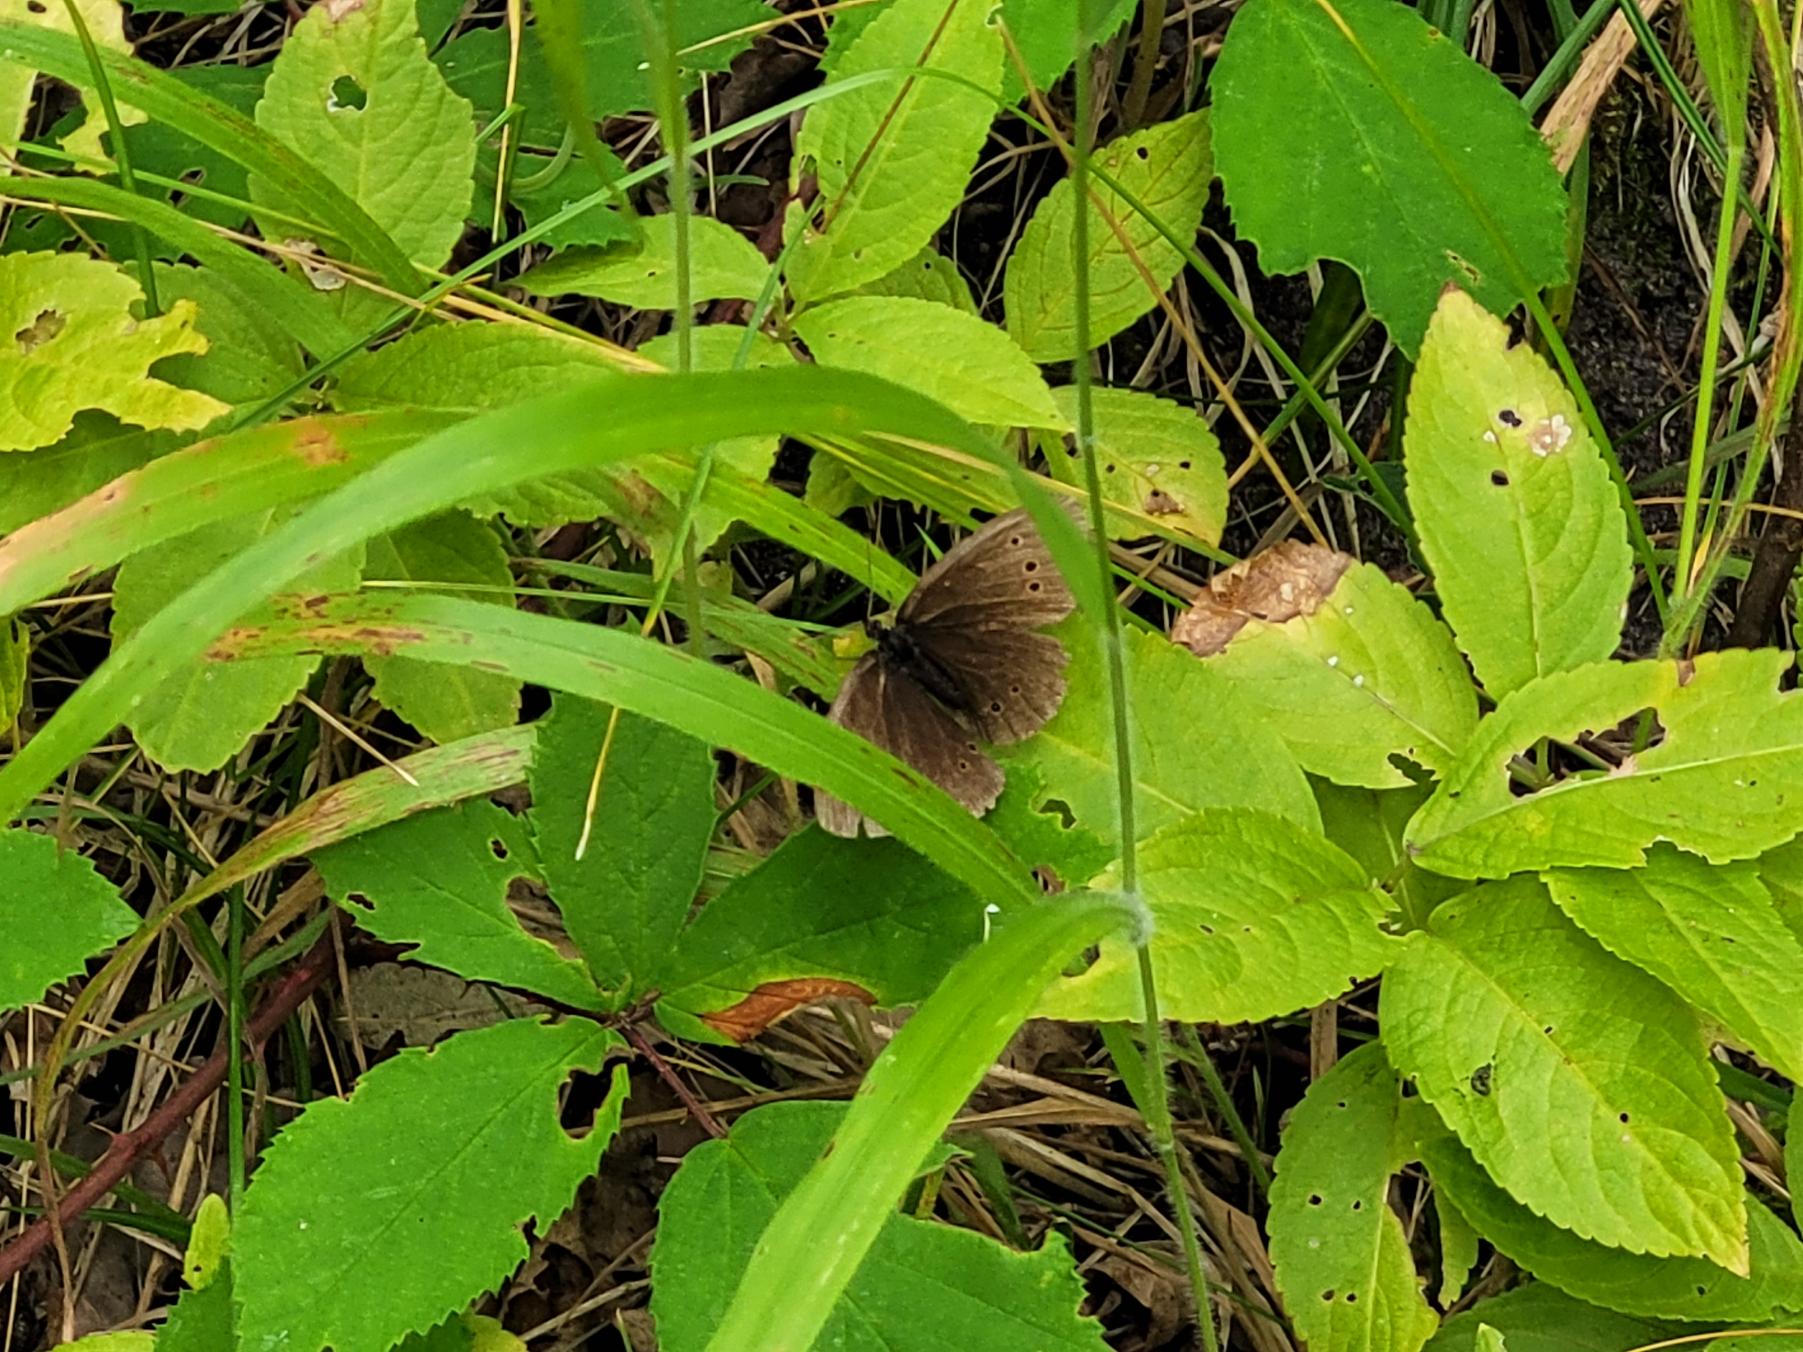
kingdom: Animalia
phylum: Arthropoda
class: Insecta
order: Lepidoptera
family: Nymphalidae
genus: Aphantopus
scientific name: Aphantopus hyperantus
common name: Engrandøje
